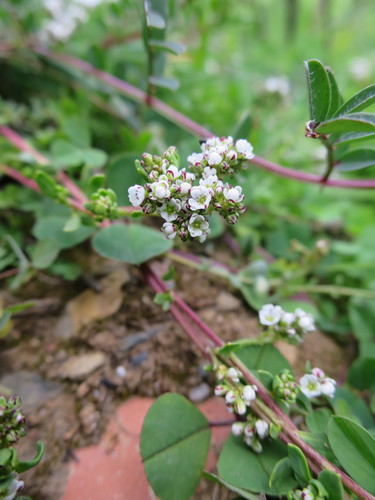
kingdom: Plantae
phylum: Tracheophyta
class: Magnoliopsida
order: Caryophyllales
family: Caryophyllaceae
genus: Corrigiola
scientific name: Corrigiola litoralis
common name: Strapwort
